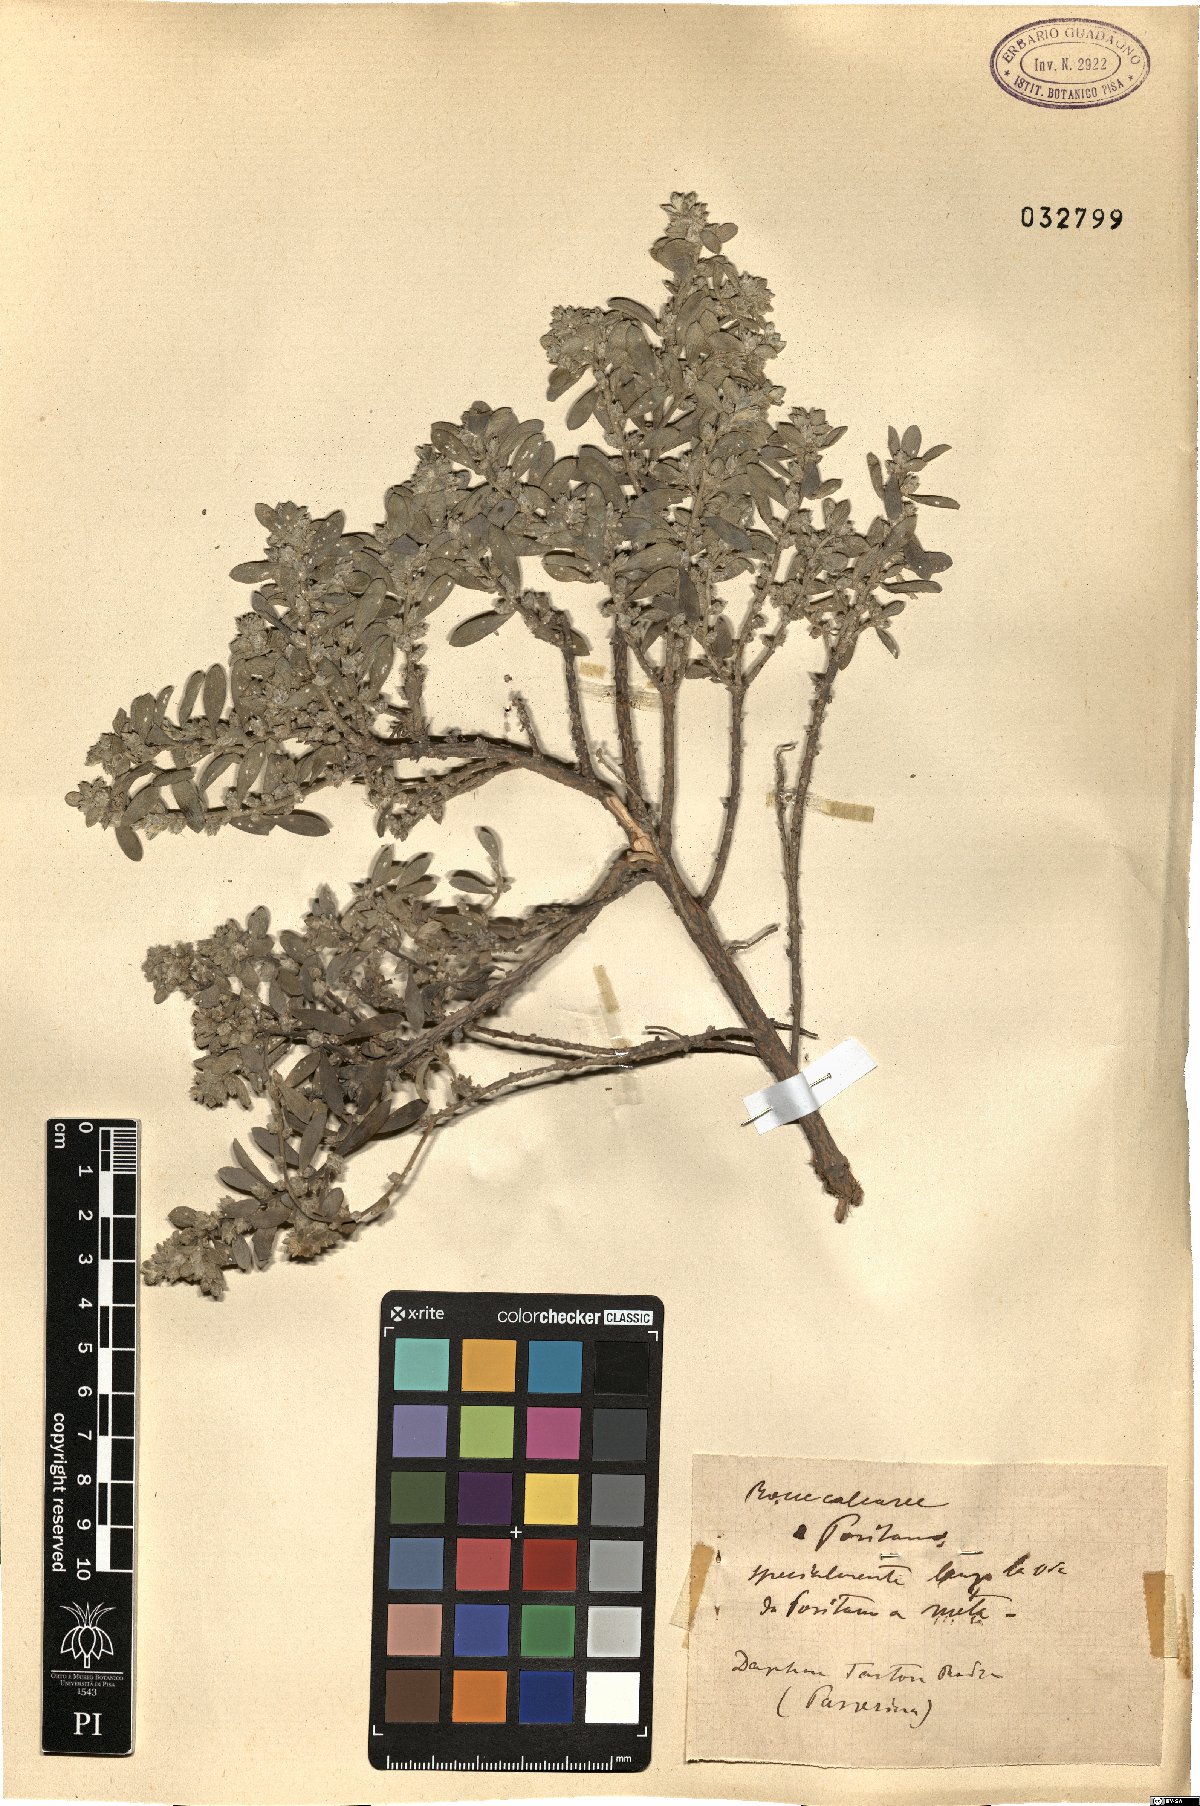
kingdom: Plantae
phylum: Tracheophyta
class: Magnoliopsida
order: Malvales
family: Thymelaeaceae
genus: Thymelaea
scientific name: Thymelaea tartonraira
